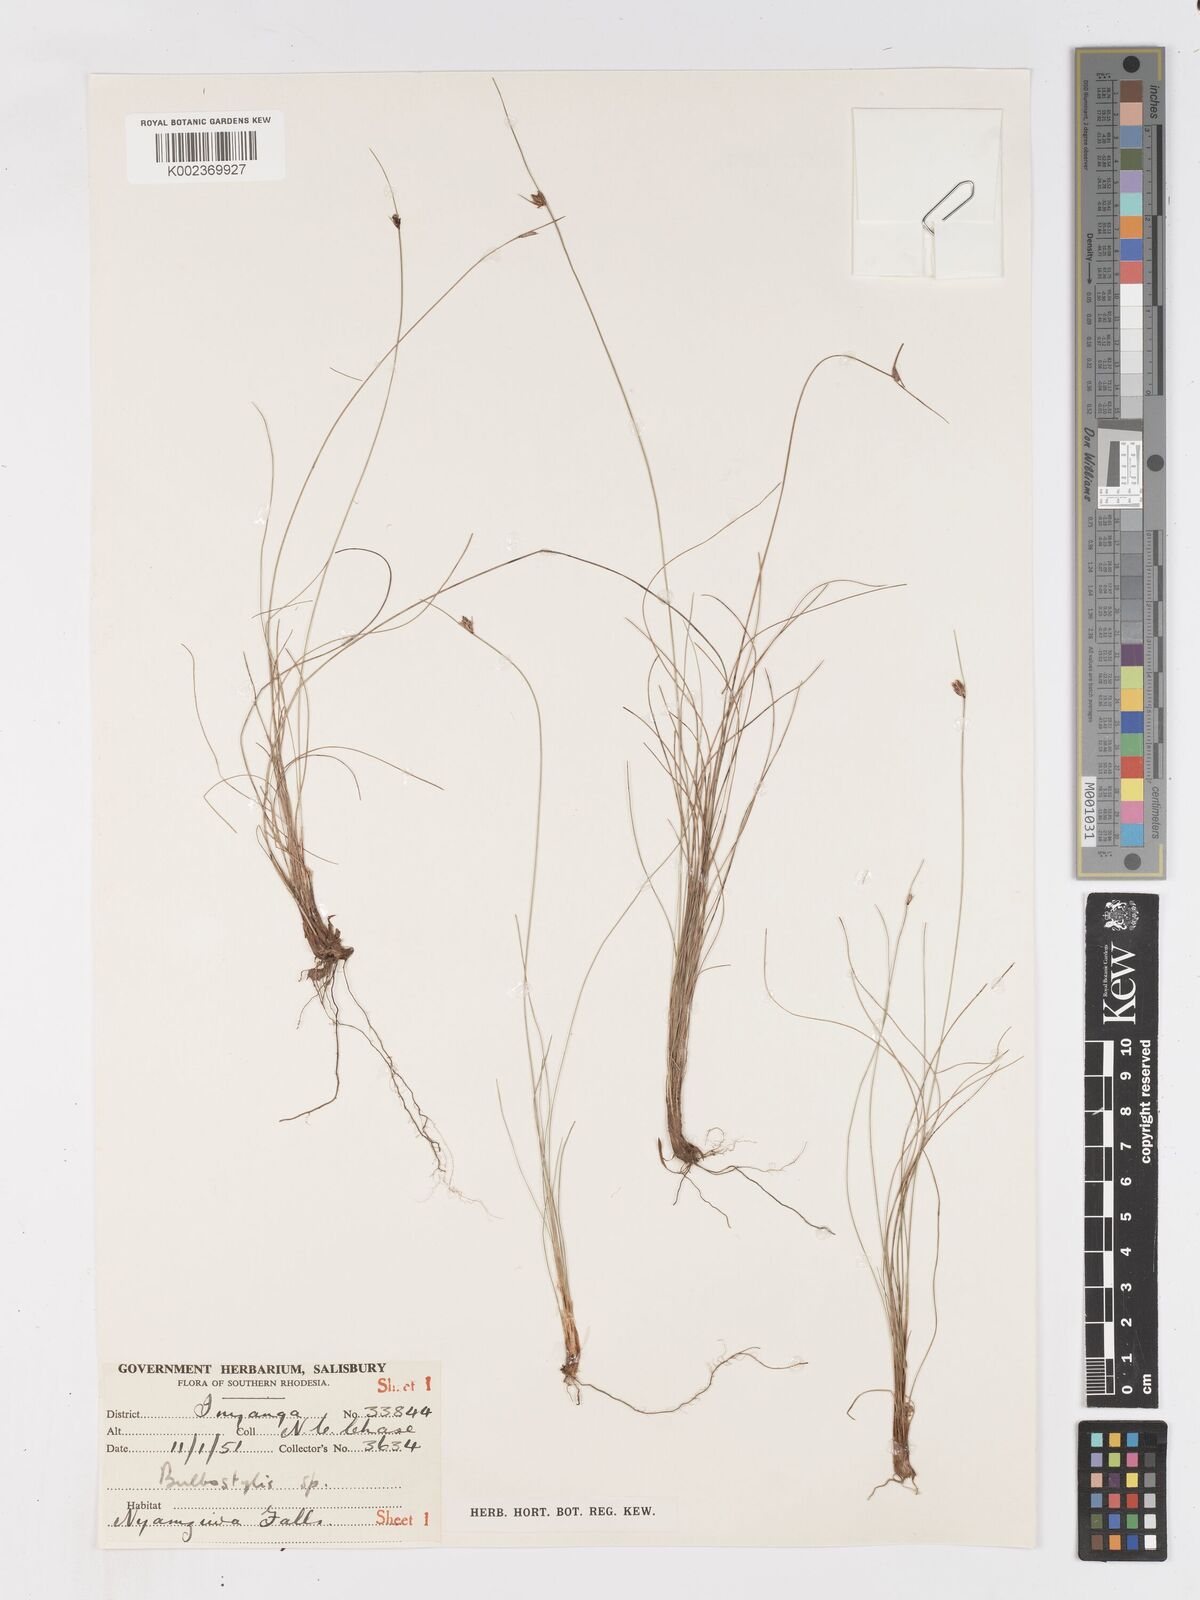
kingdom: Plantae
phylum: Tracheophyta
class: Liliopsida
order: Poales
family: Cyperaceae
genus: Ficinia
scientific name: Ficinia filiformis
